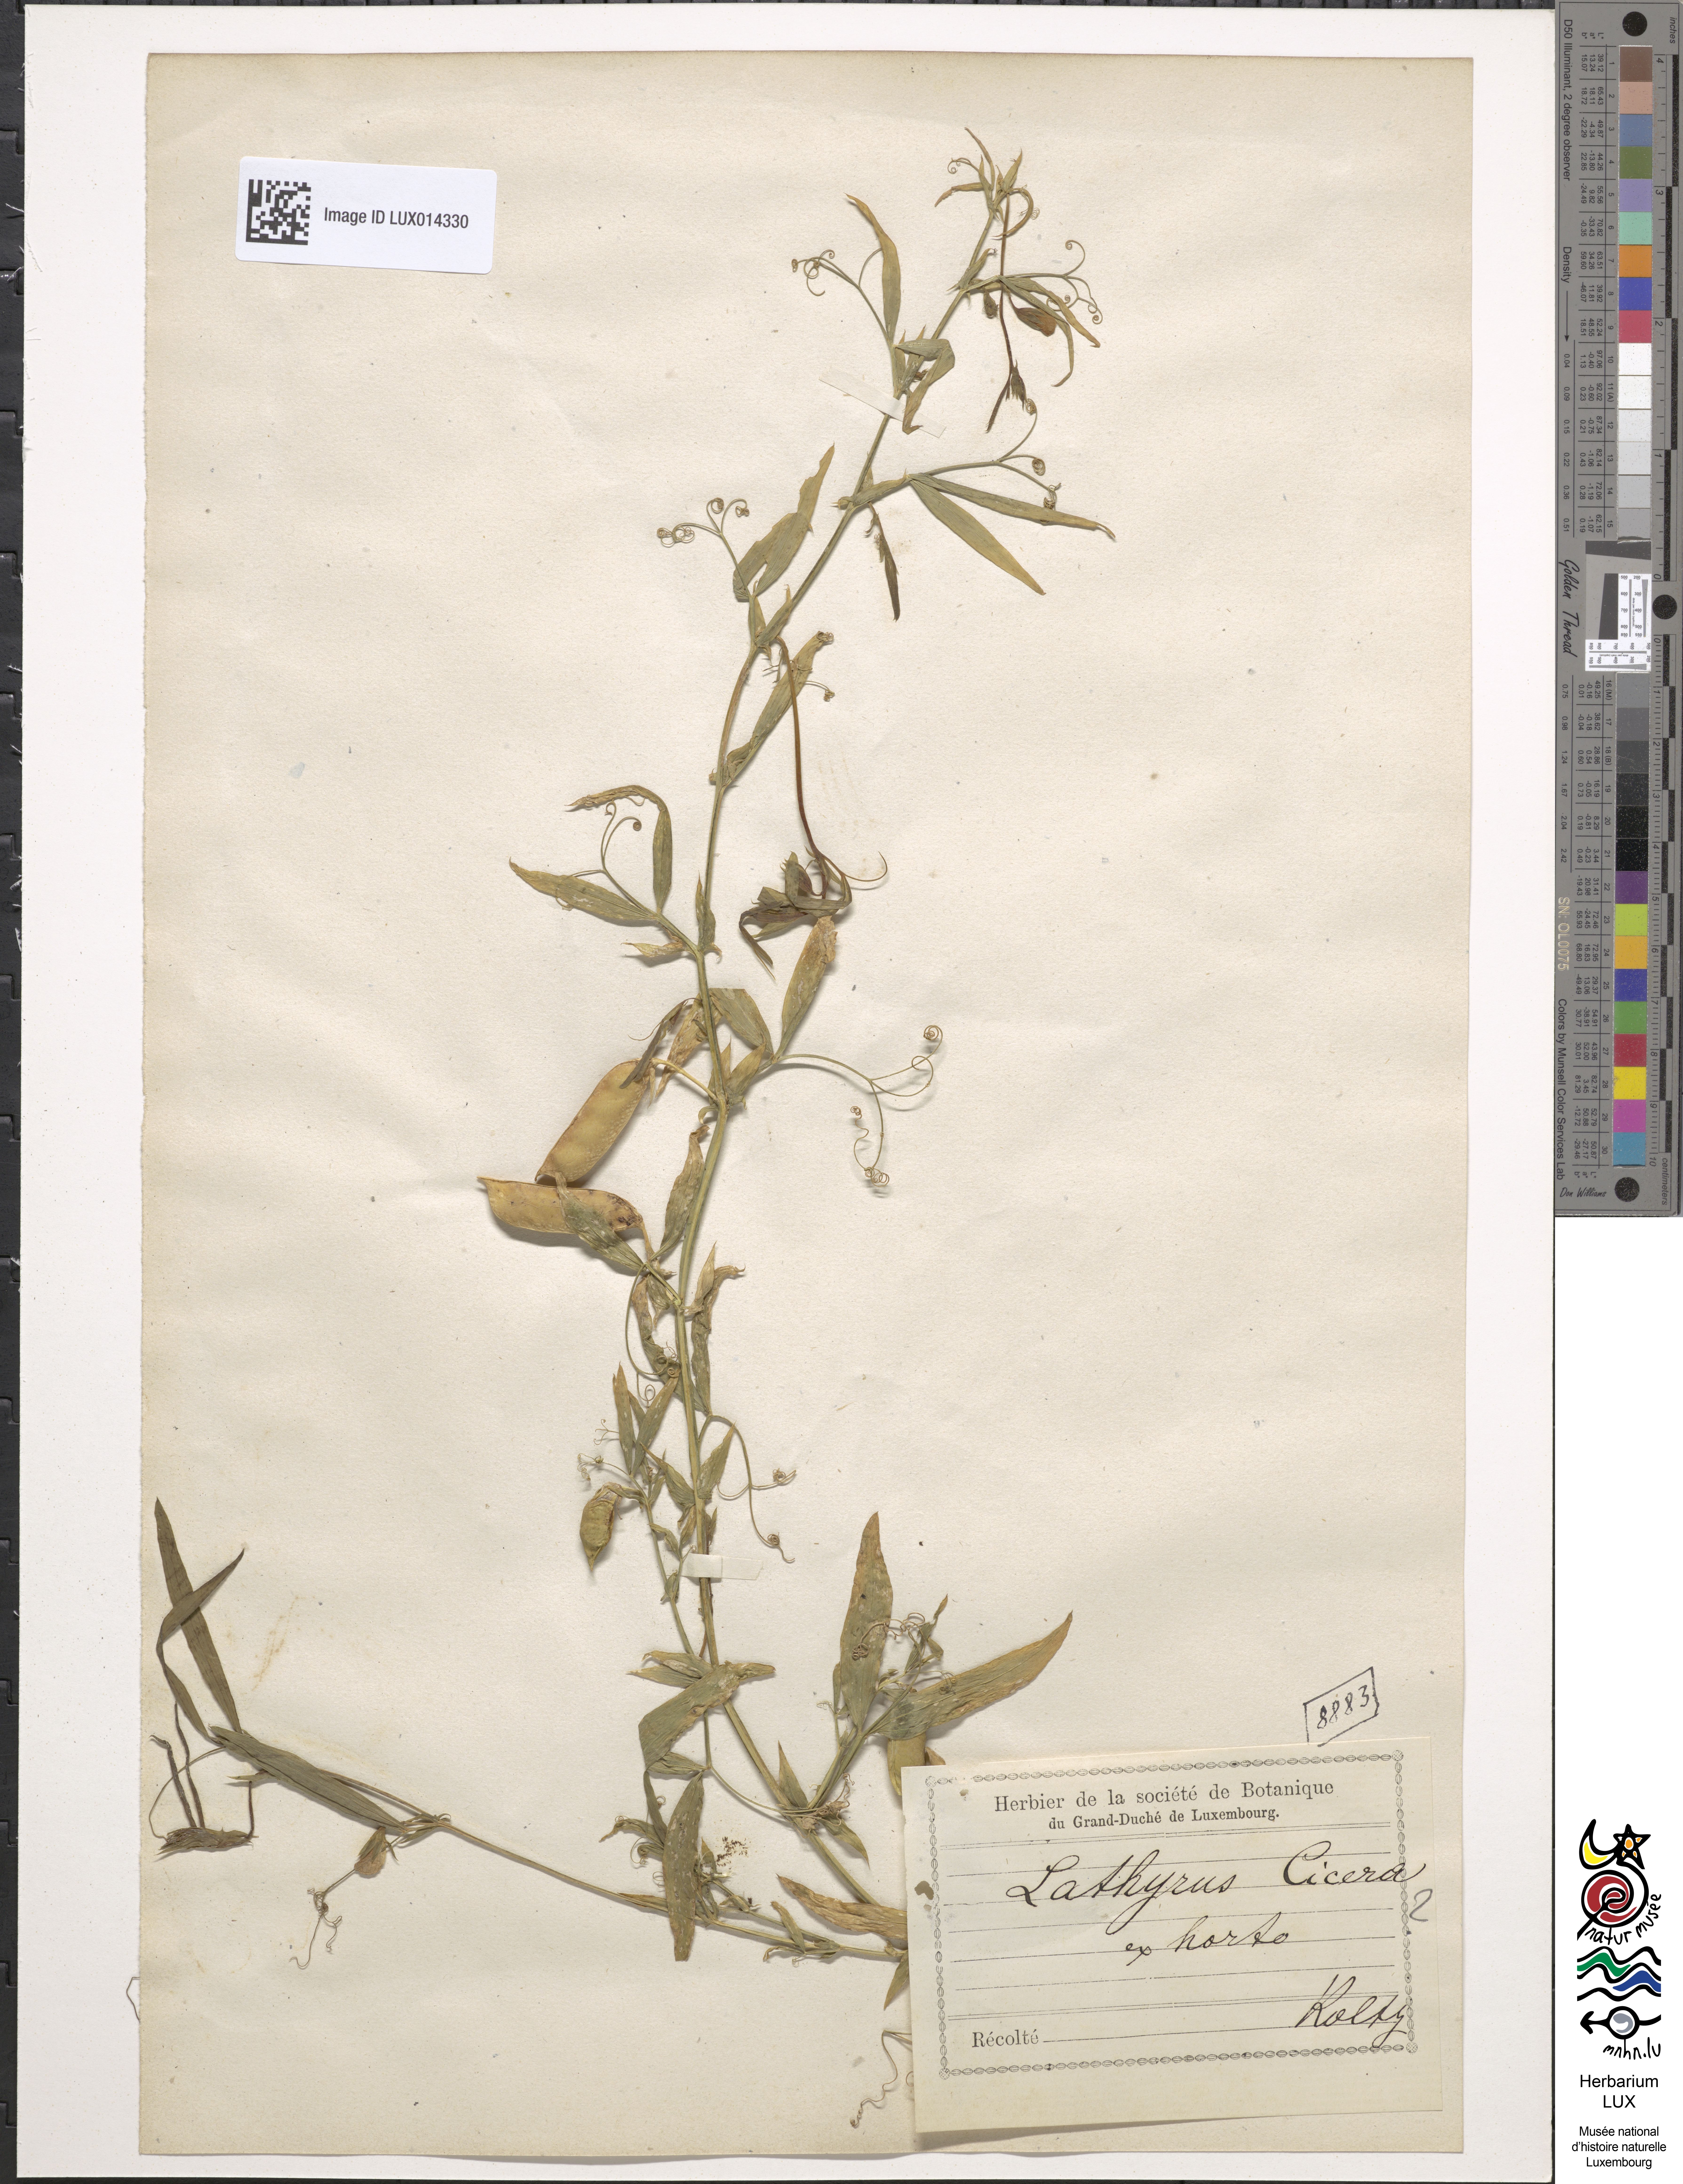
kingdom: Plantae
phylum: Tracheophyta
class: Magnoliopsida
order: Fabales
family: Fabaceae
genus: Lathyrus
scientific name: Lathyrus cicera
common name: Red vetchling
